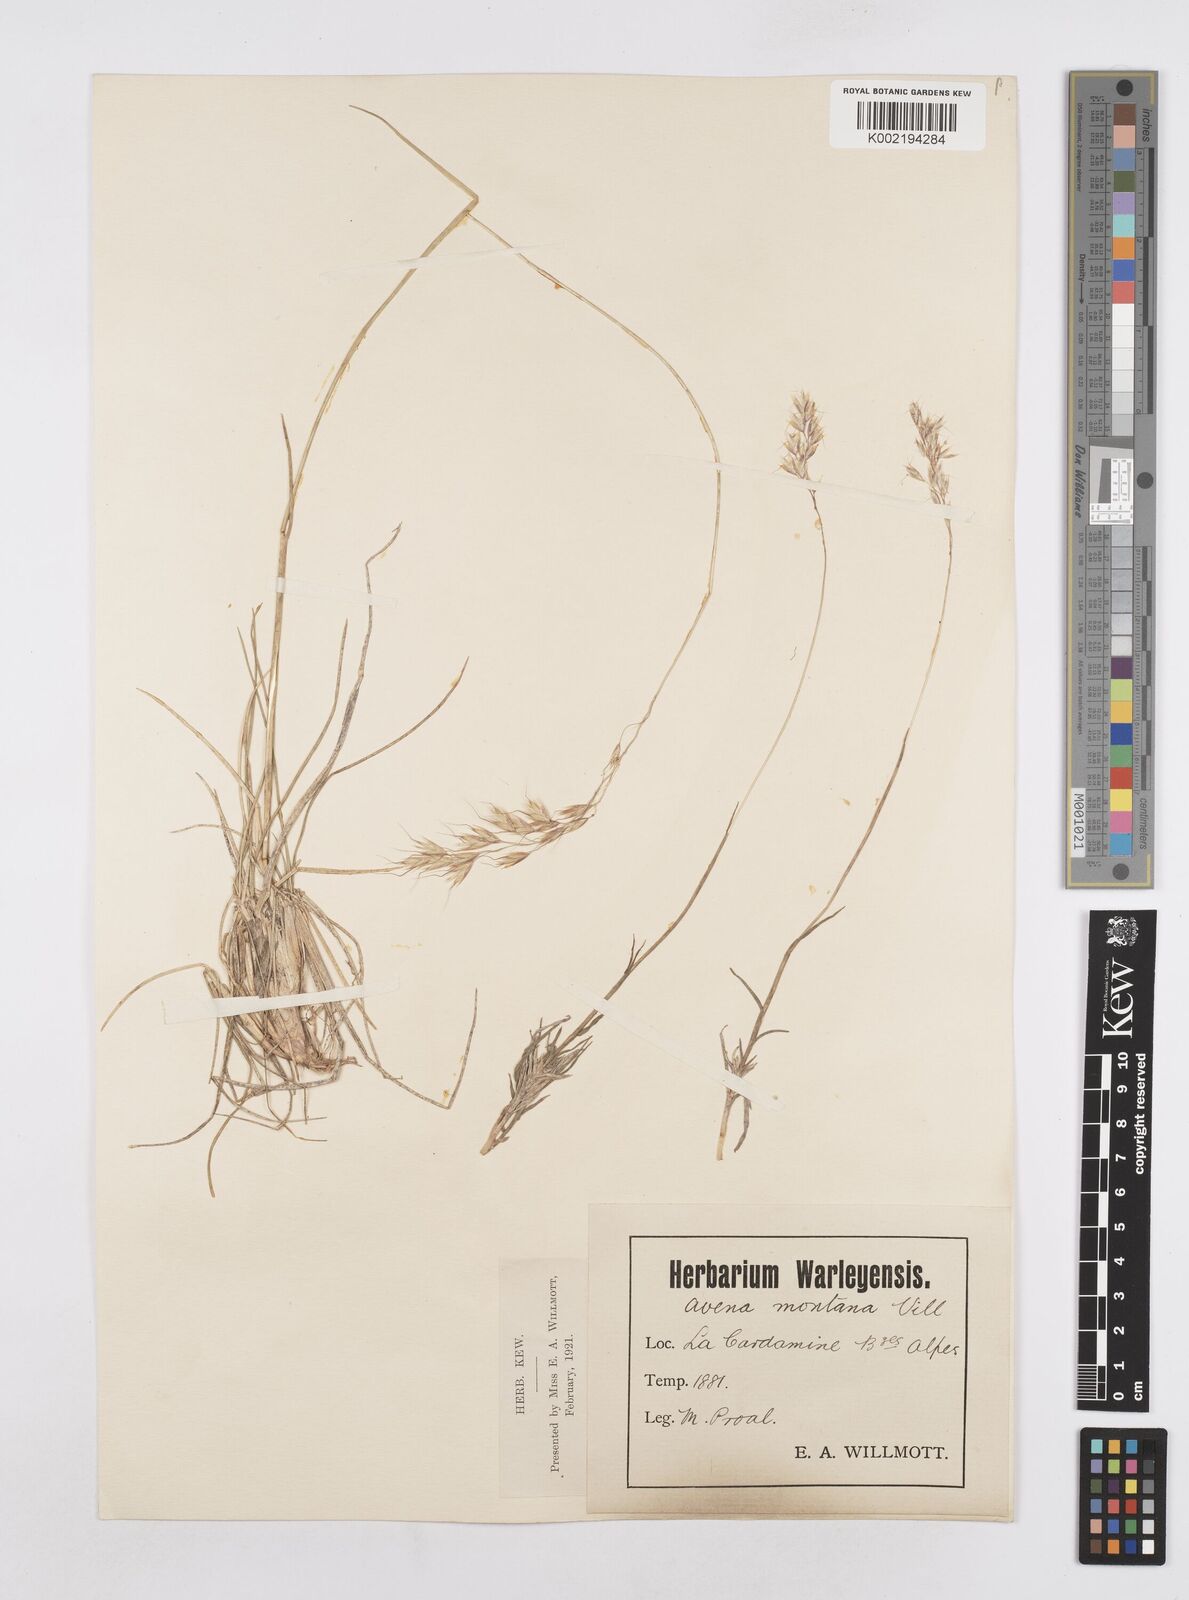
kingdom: Plantae
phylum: Tracheophyta
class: Liliopsida
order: Poales
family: Poaceae
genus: Helictotrichon
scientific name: Helictotrichon sedenense
